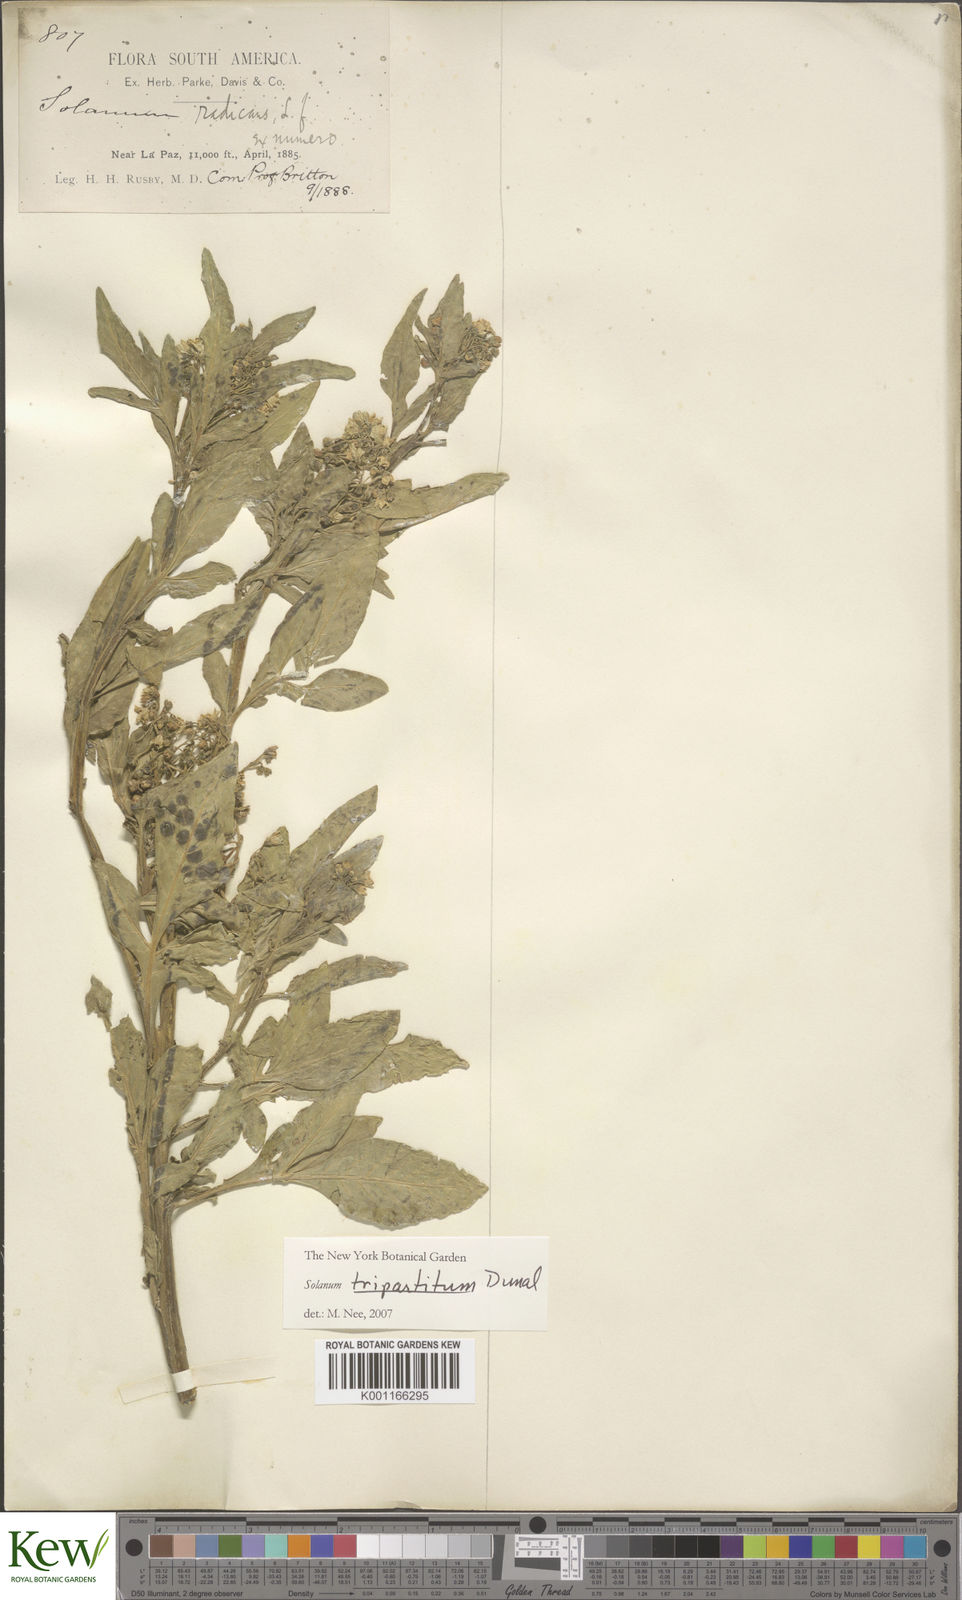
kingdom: Plantae
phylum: Tracheophyta
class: Magnoliopsida
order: Solanales
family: Solanaceae
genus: Solanum
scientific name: Solanum tripartitum
